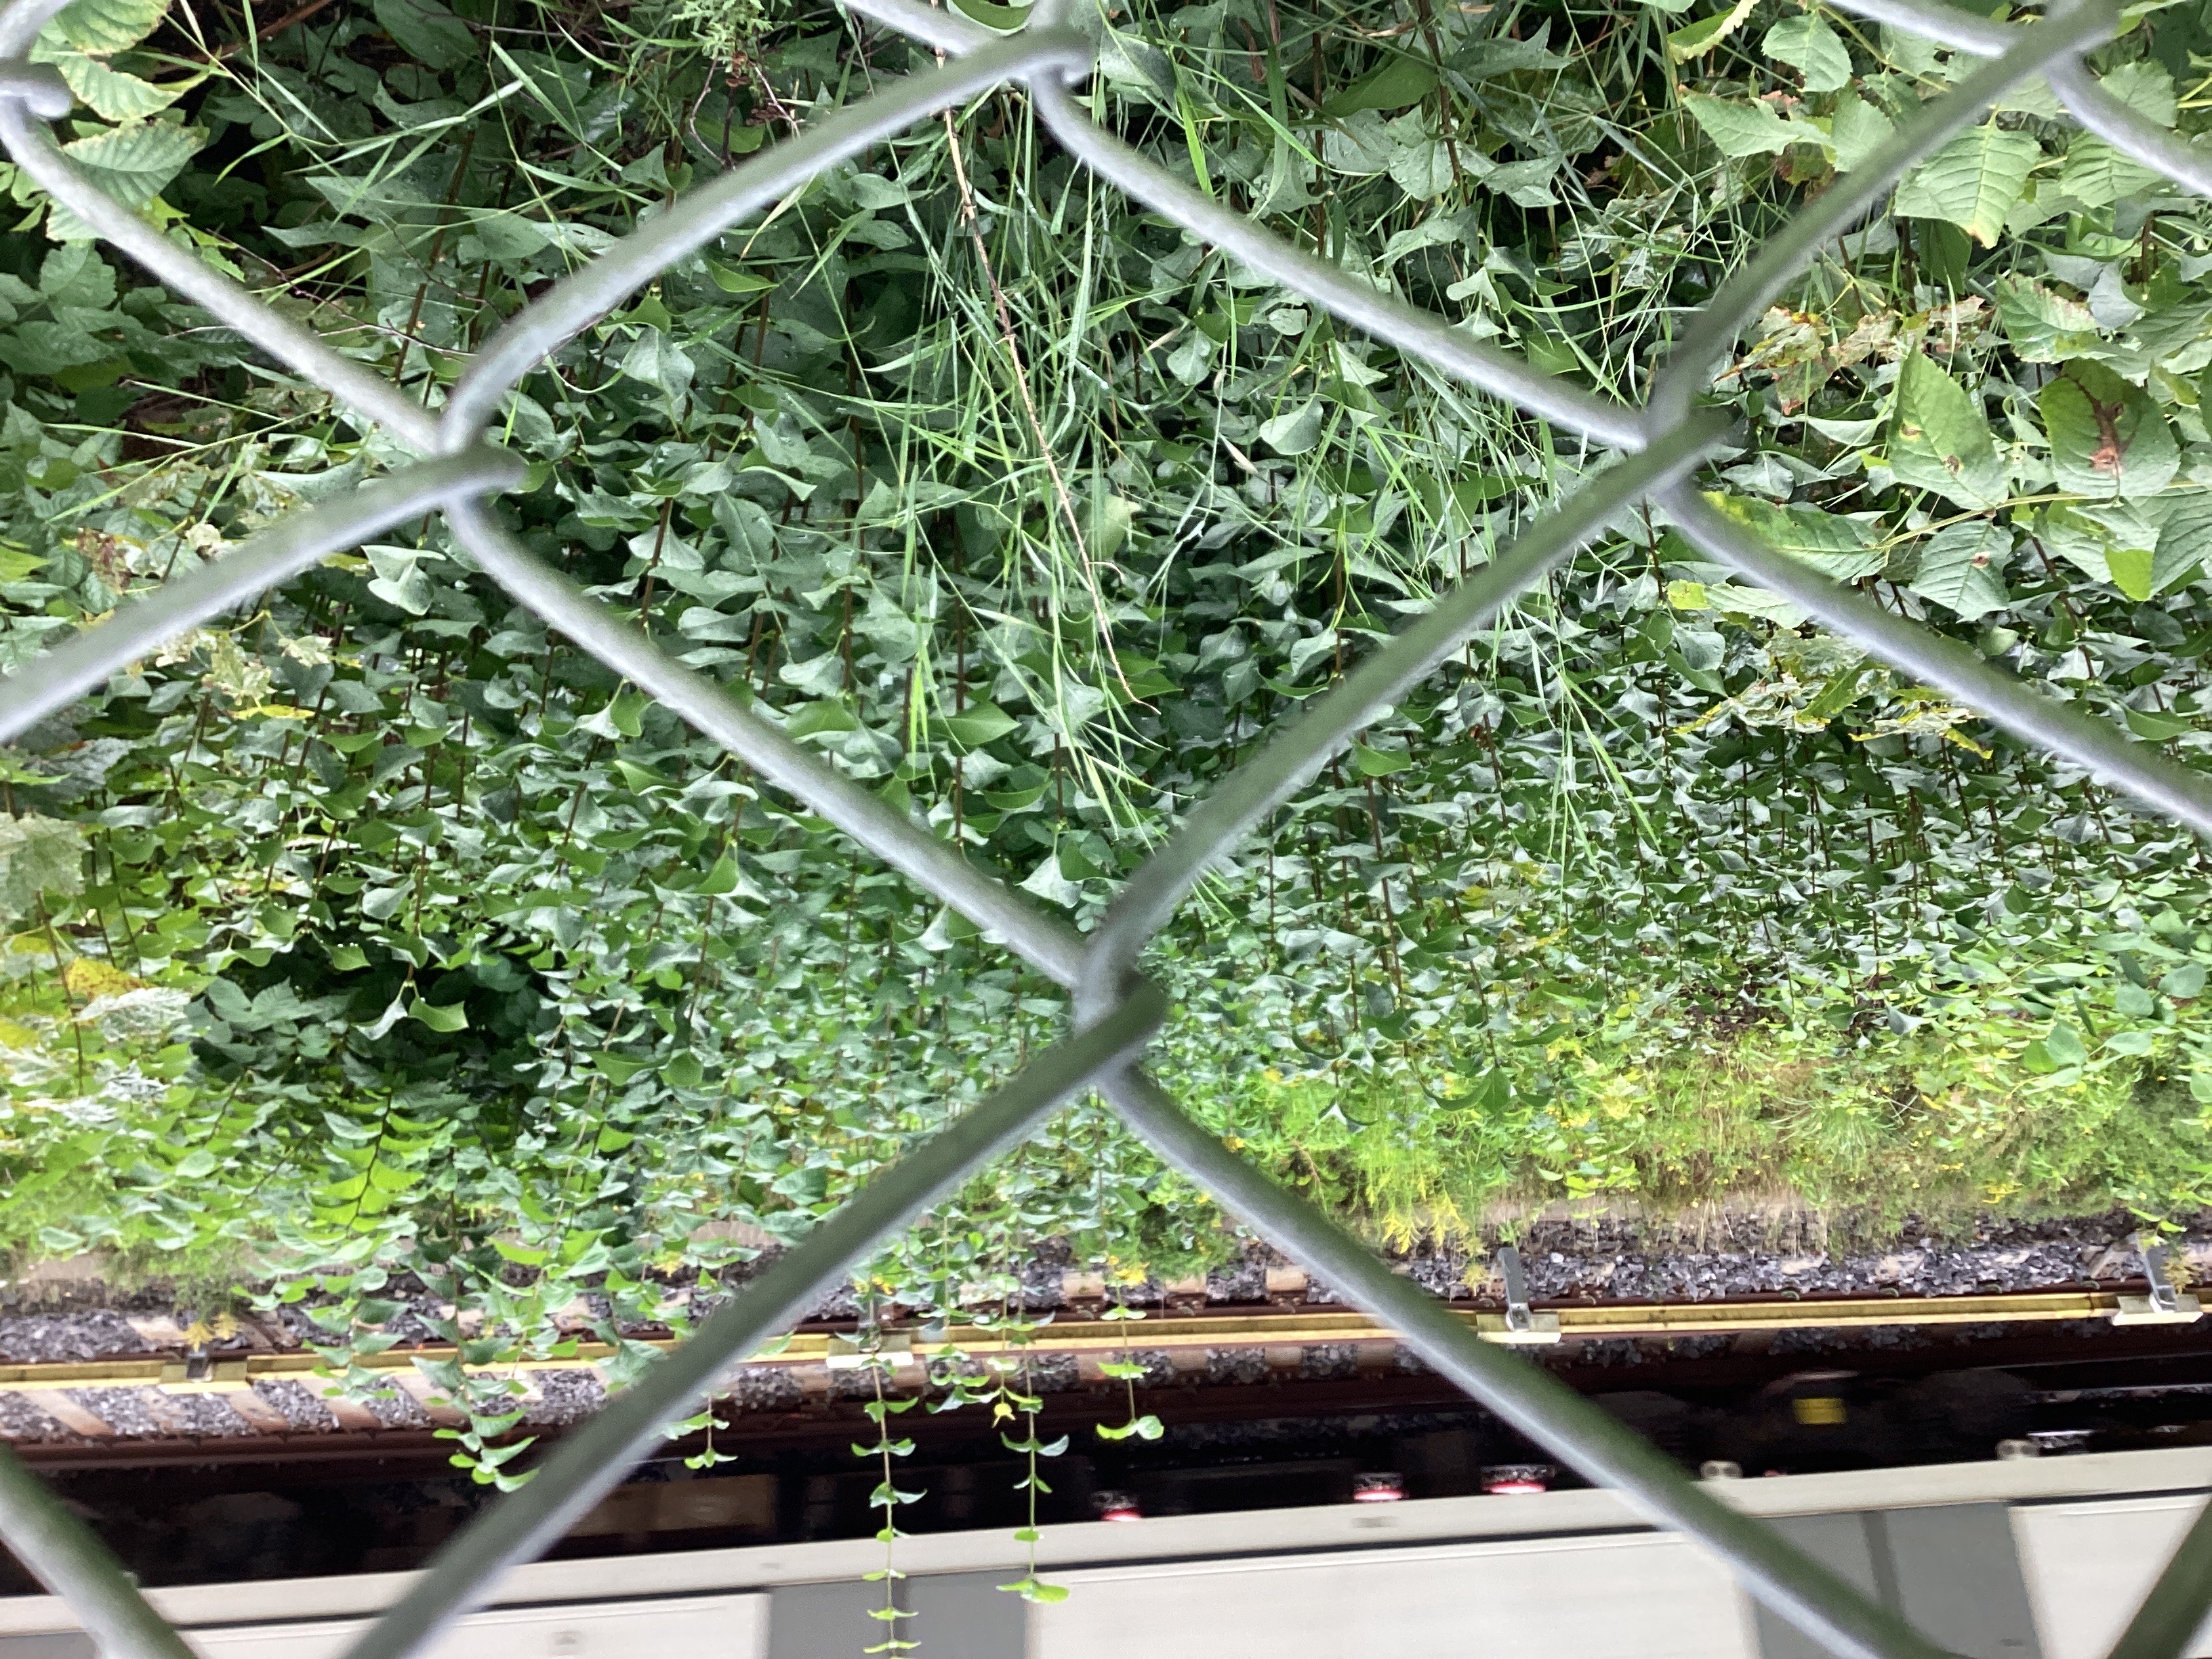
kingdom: Plantae
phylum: Tracheophyta
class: Magnoliopsida
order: Lamiales
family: Oleaceae
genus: Syringa
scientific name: Syringa vulgaris
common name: syrin
